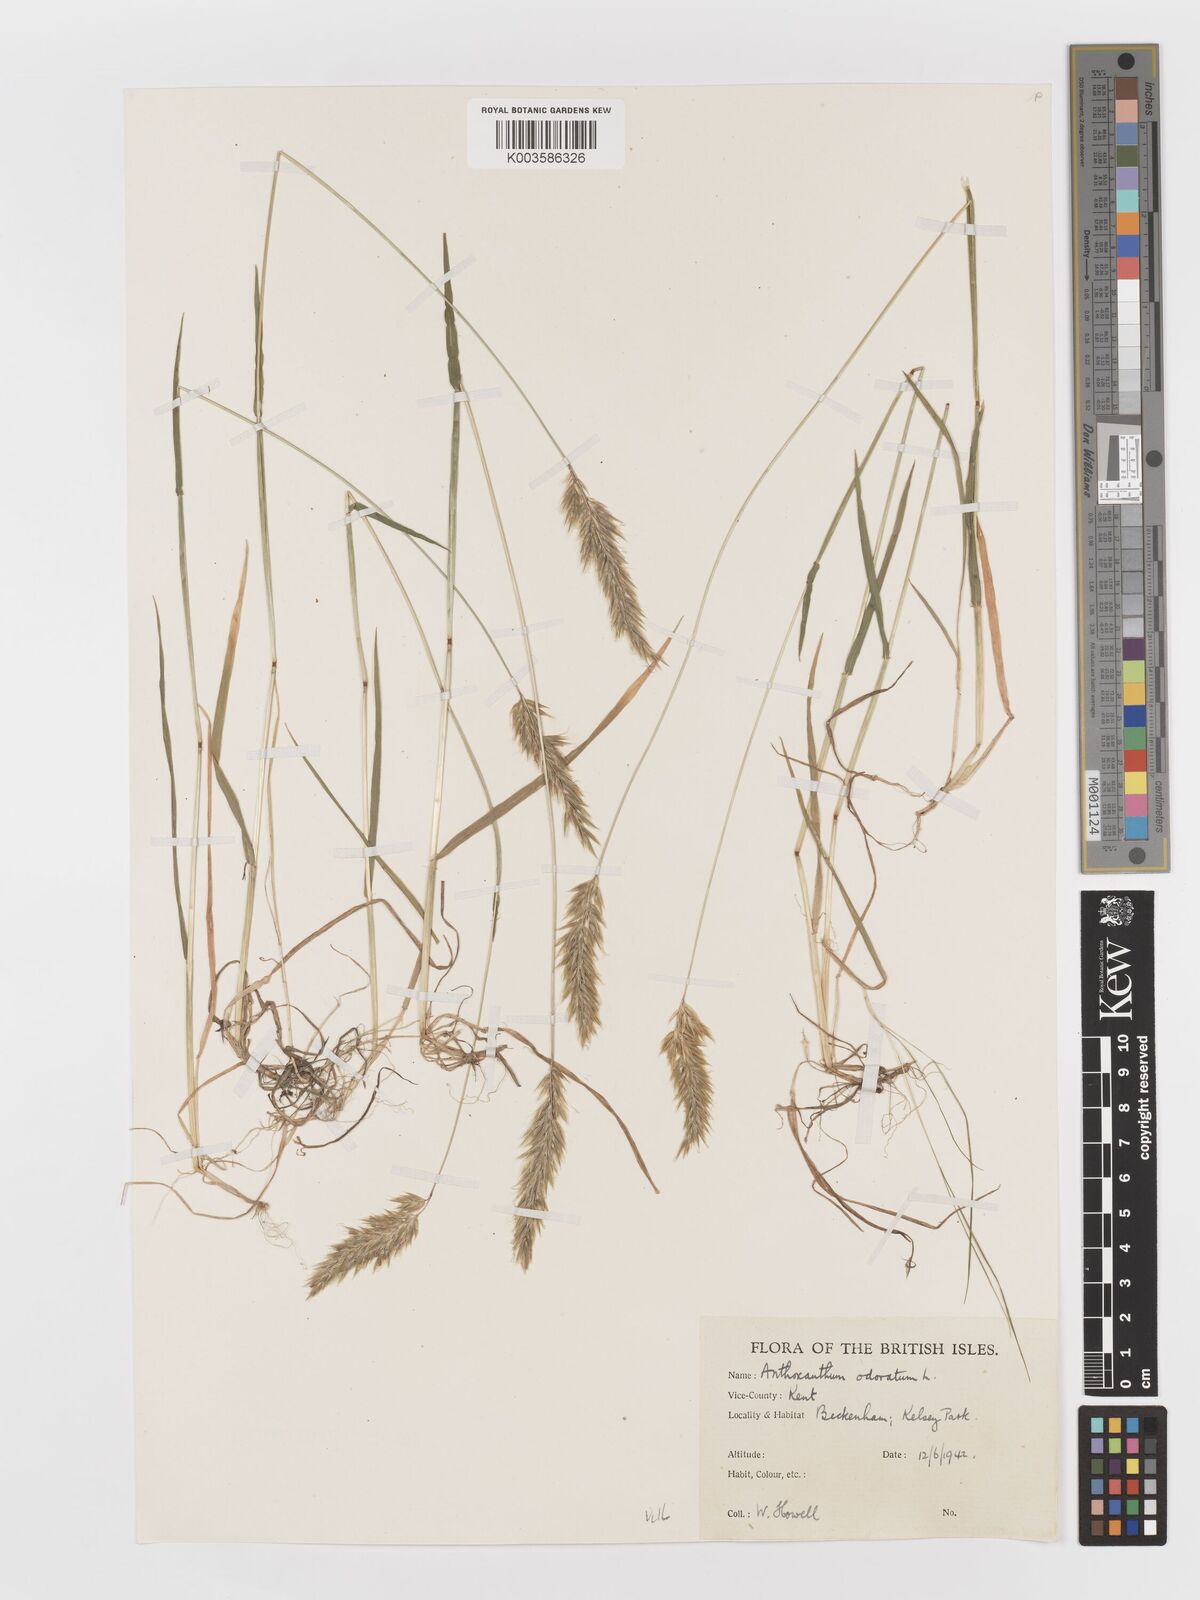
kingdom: Plantae
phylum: Tracheophyta
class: Liliopsida
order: Poales
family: Poaceae
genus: Anthoxanthum
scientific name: Anthoxanthum odoratum
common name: Sweet vernalgrass
